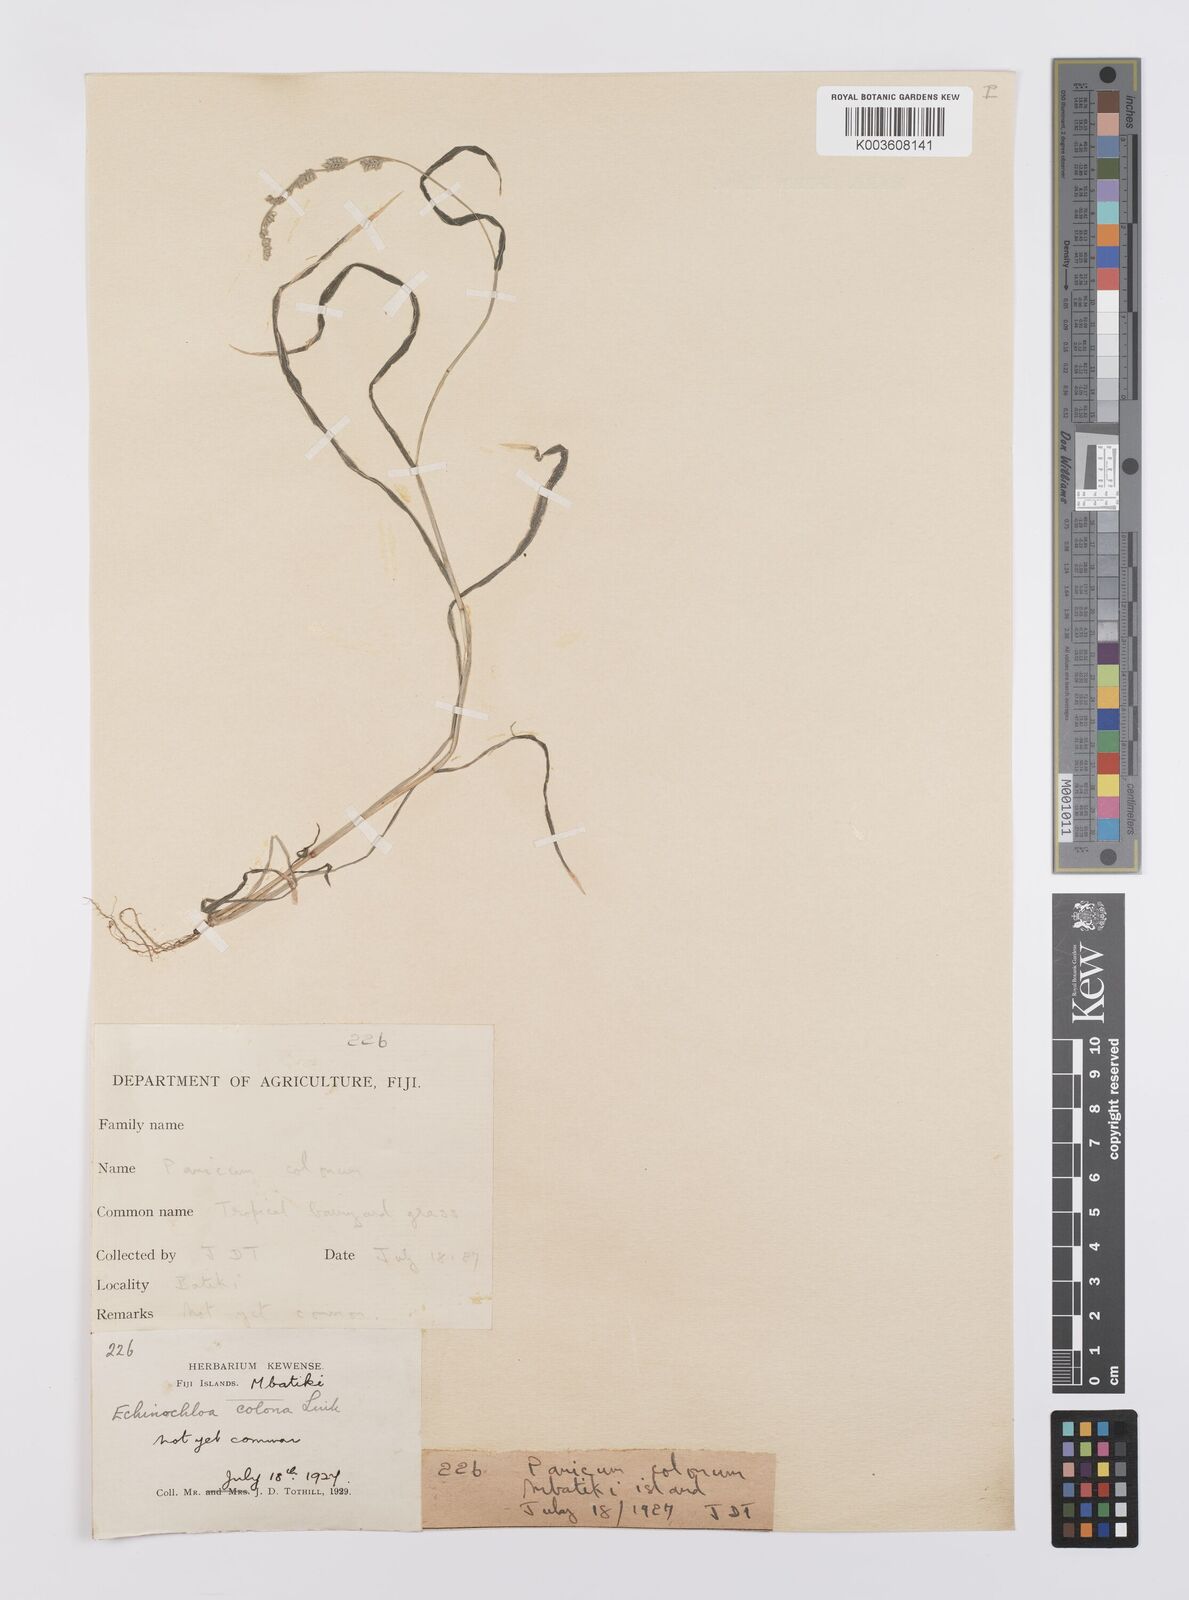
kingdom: Plantae
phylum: Tracheophyta
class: Liliopsida
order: Poales
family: Poaceae
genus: Echinochloa
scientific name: Echinochloa colonum
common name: Jungle rice
